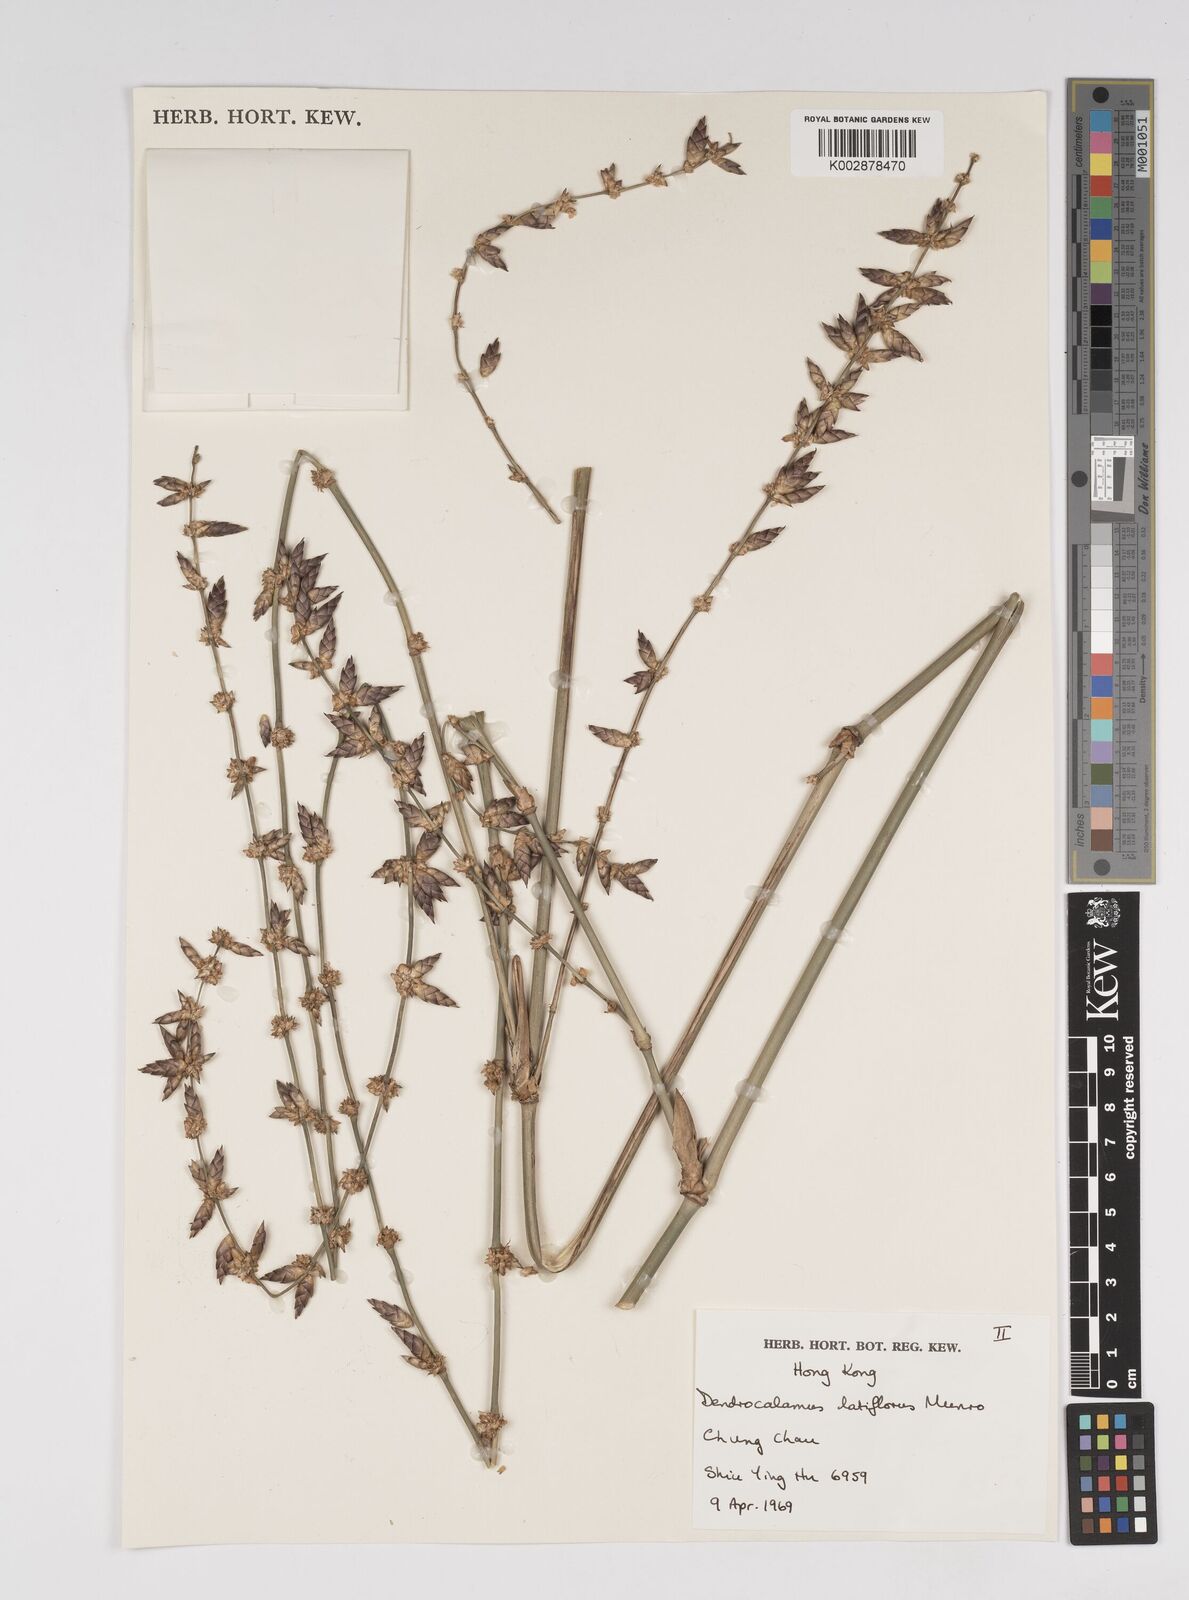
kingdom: Plantae
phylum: Tracheophyta
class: Liliopsida
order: Poales
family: Poaceae
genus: Dendrocalamus
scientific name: Dendrocalamus latiflorus
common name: Giant bamboo
